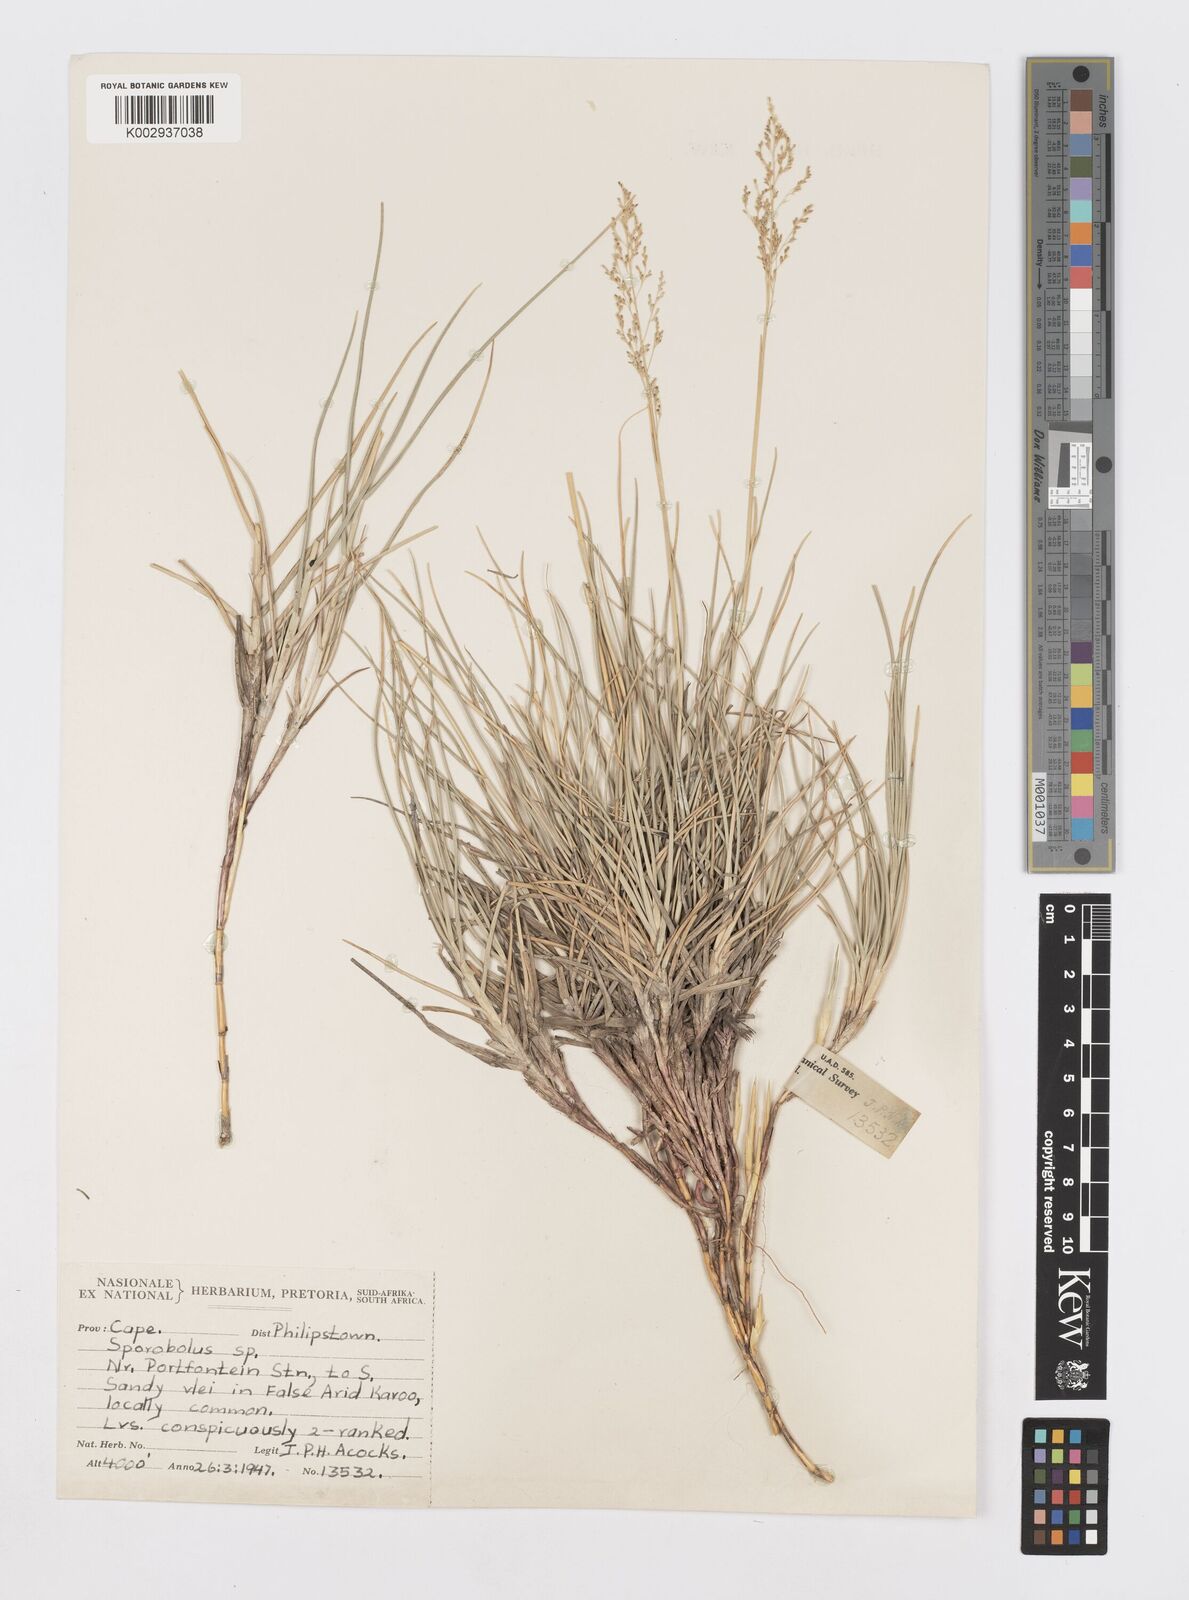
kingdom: Plantae
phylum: Tracheophyta
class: Liliopsida
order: Poales
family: Poaceae
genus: Sporobolus
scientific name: Sporobolus
